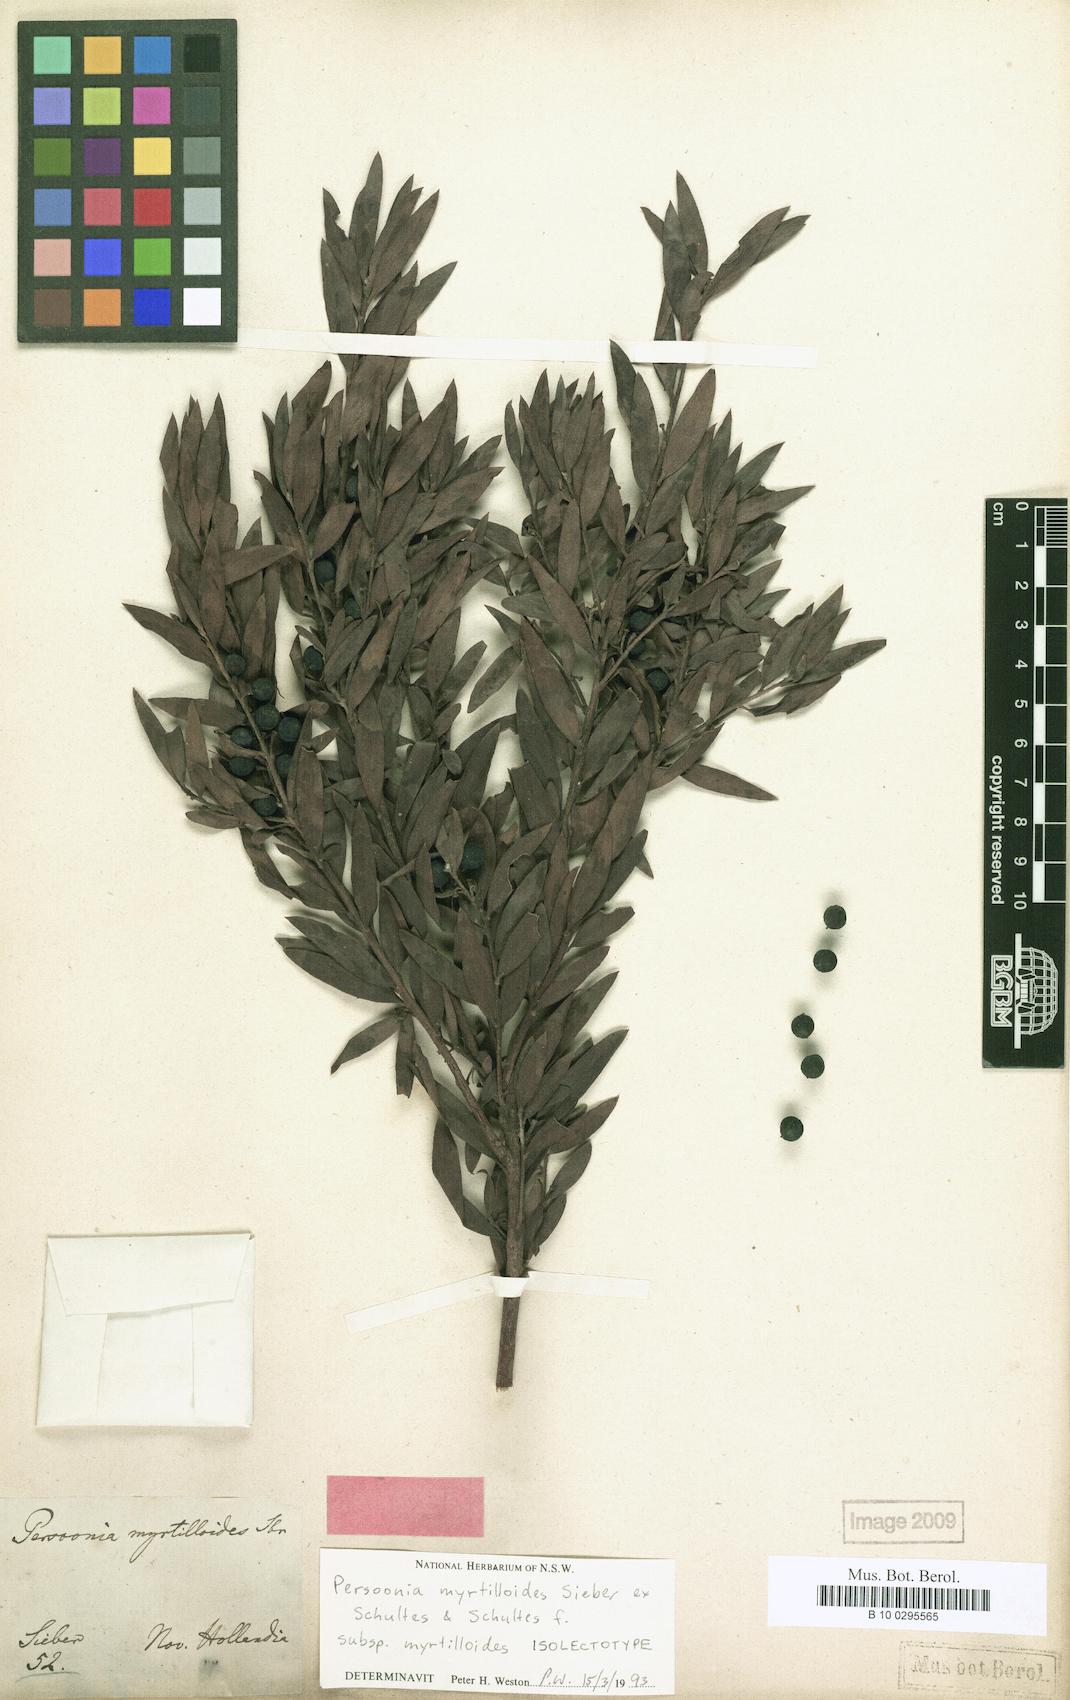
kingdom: Plantae
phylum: Tracheophyta
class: Magnoliopsida
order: Proteales
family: Proteaceae
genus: Persoonia
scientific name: Persoonia myrtilloides
